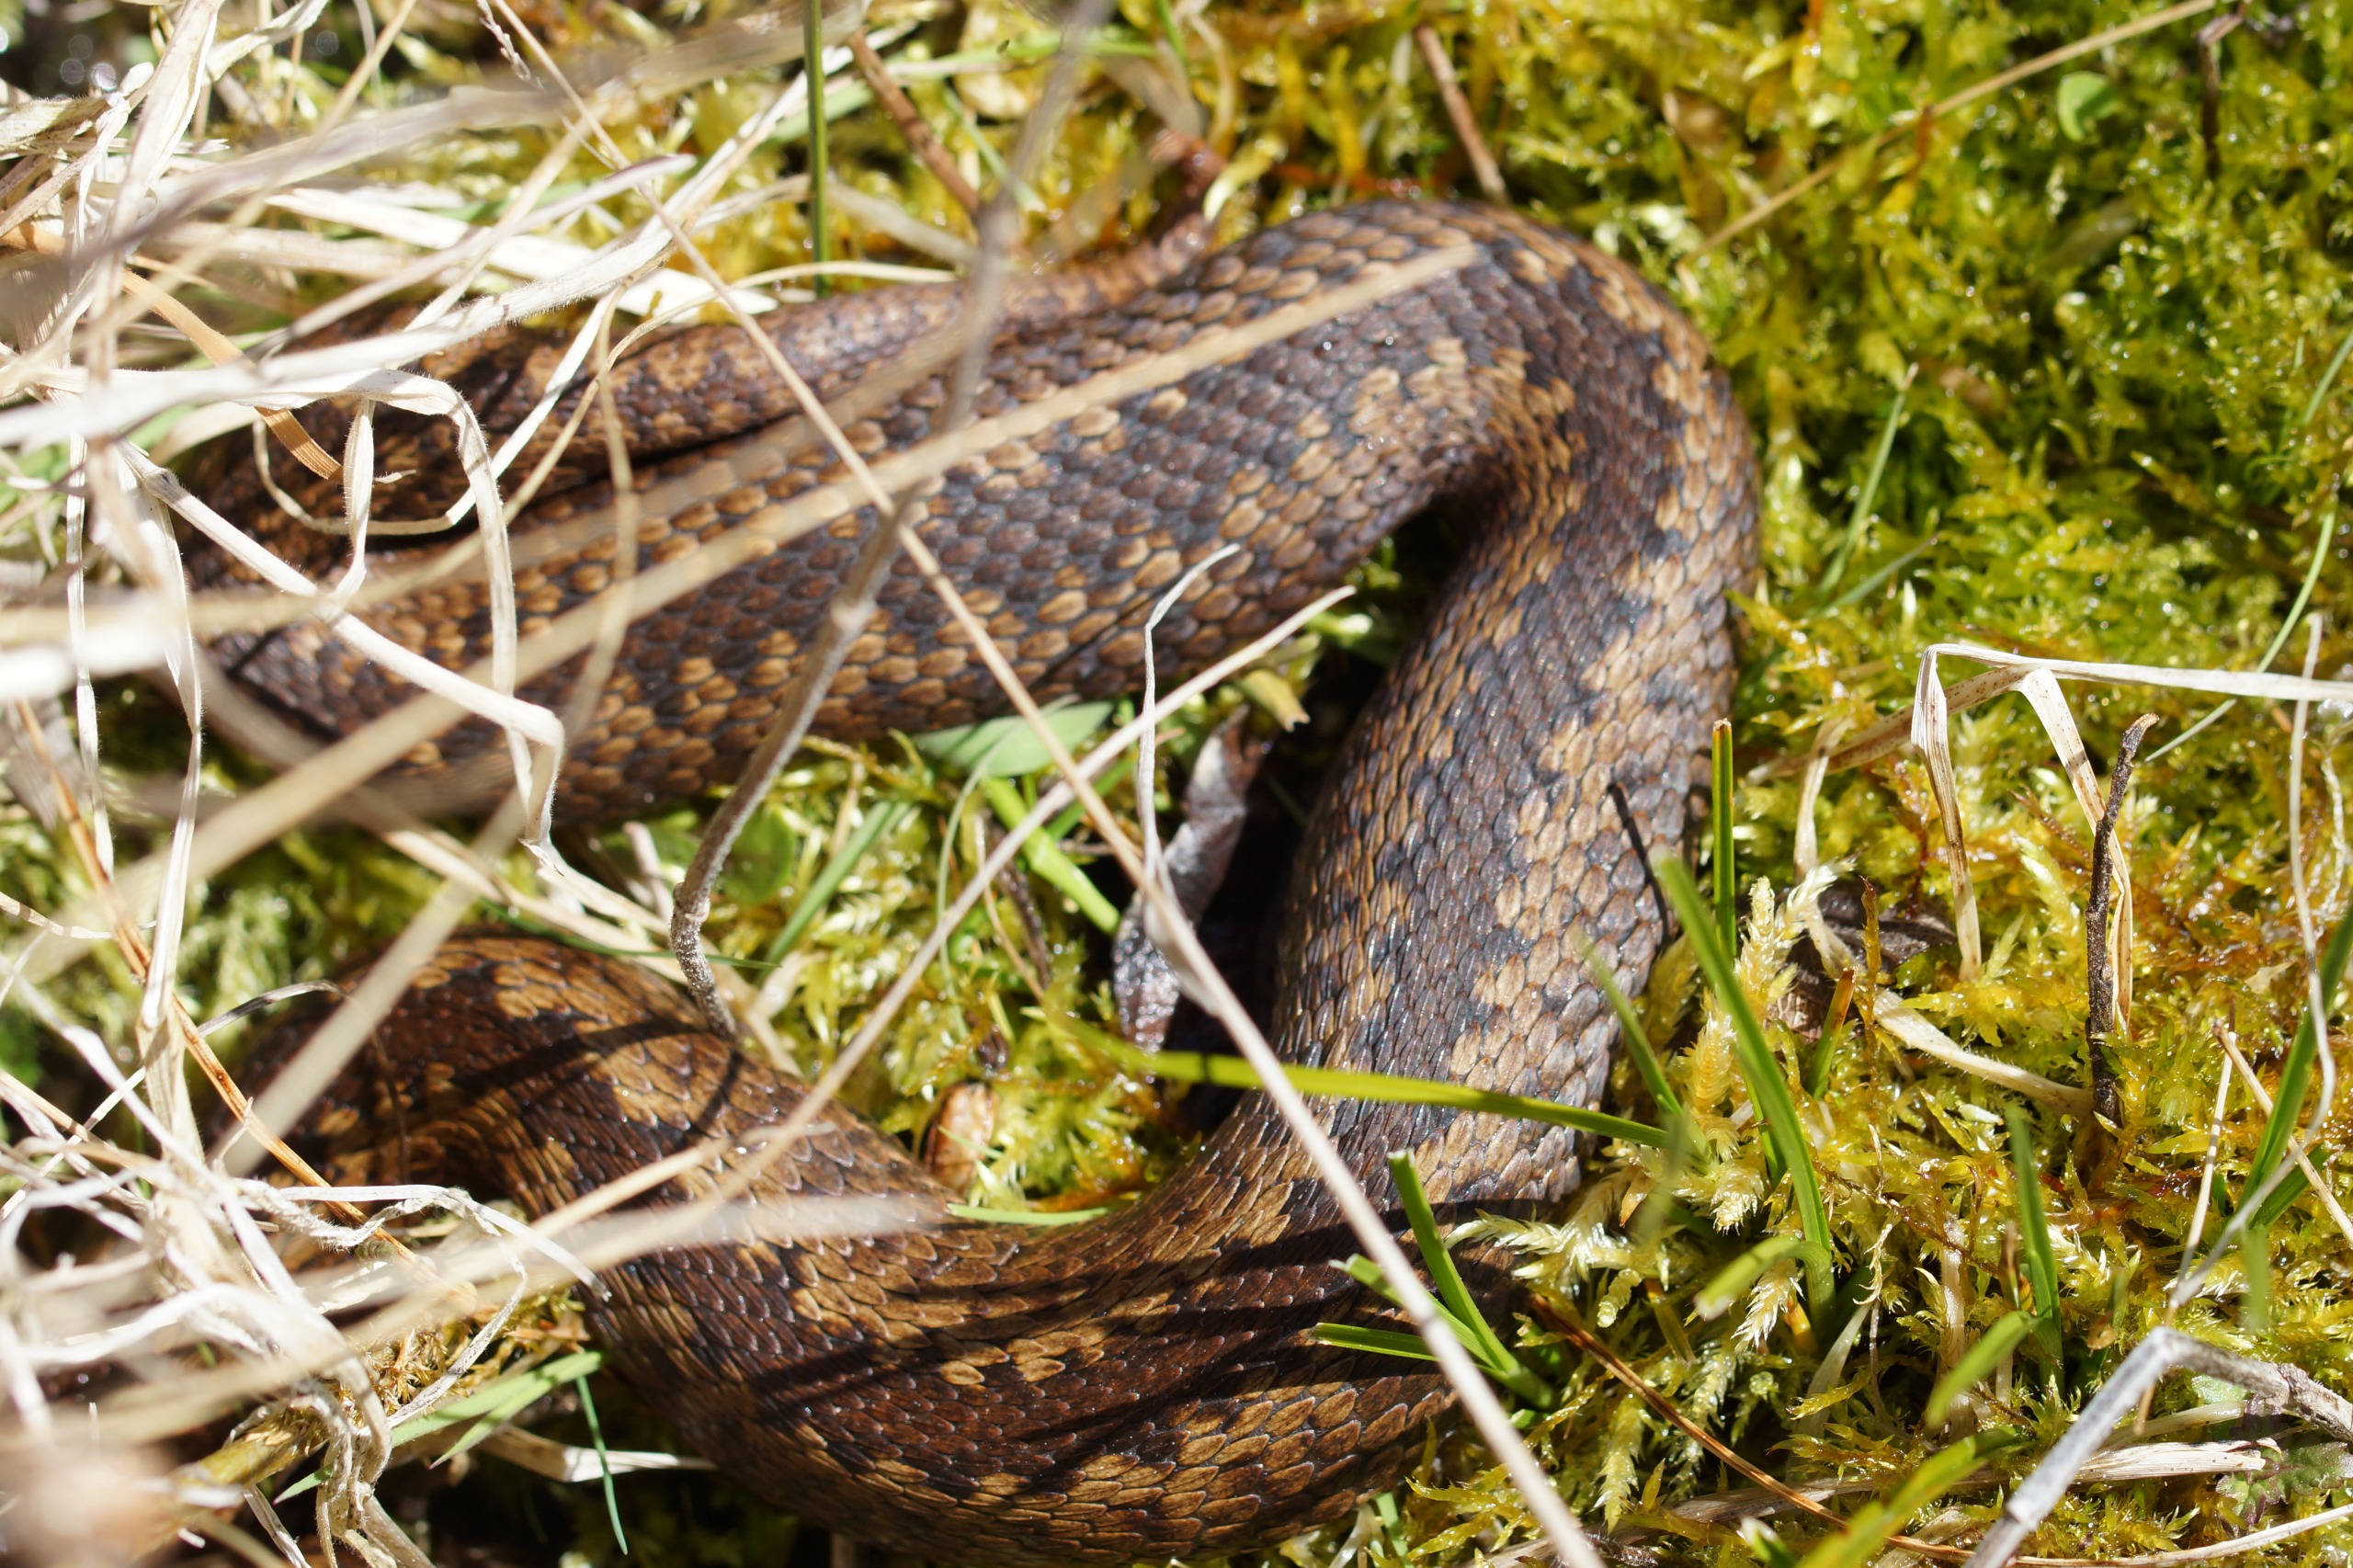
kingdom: Animalia
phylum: Chordata
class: Squamata
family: Viperidae
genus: Vipera
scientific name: Vipera berus
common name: Hugorm
